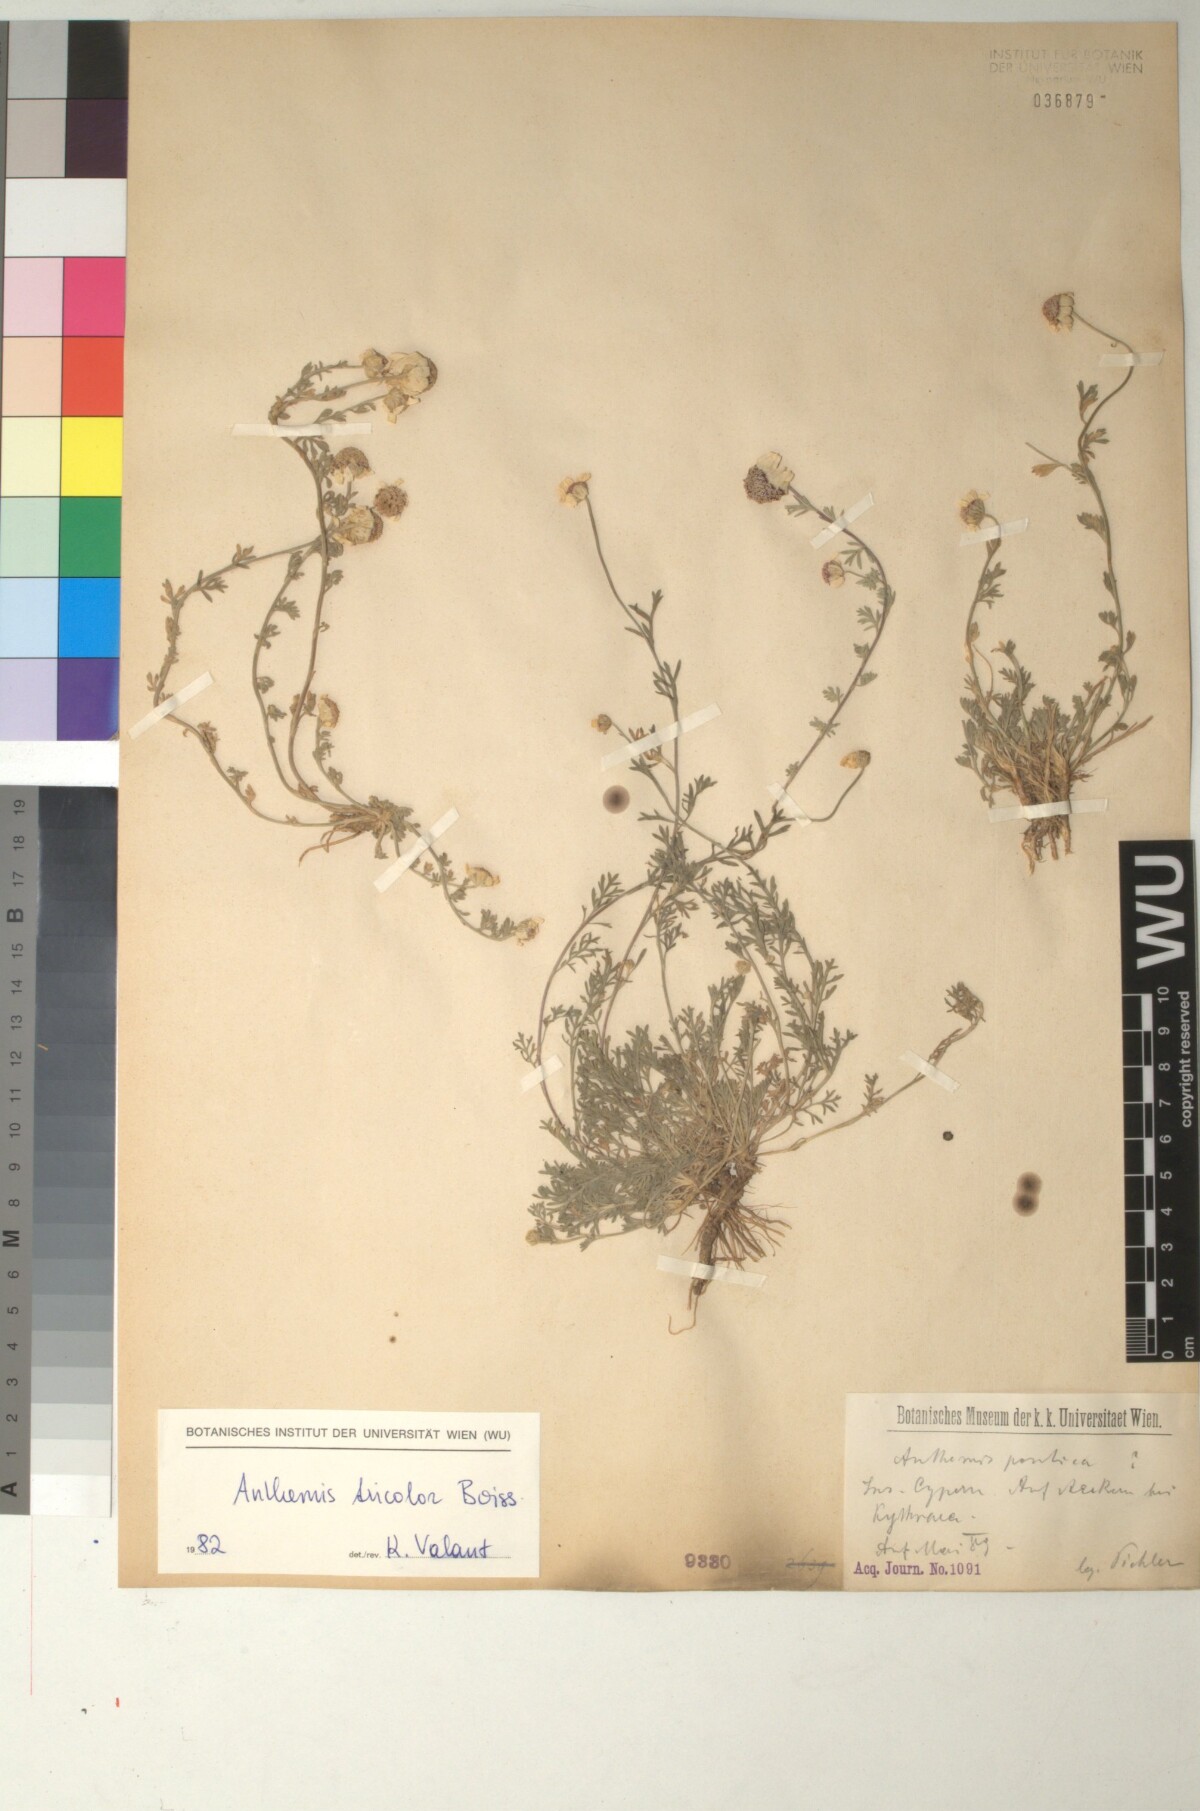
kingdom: Plantae
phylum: Tracheophyta
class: Magnoliopsida
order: Asterales
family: Asteraceae
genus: Anthemis
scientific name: Anthemis tricolor
